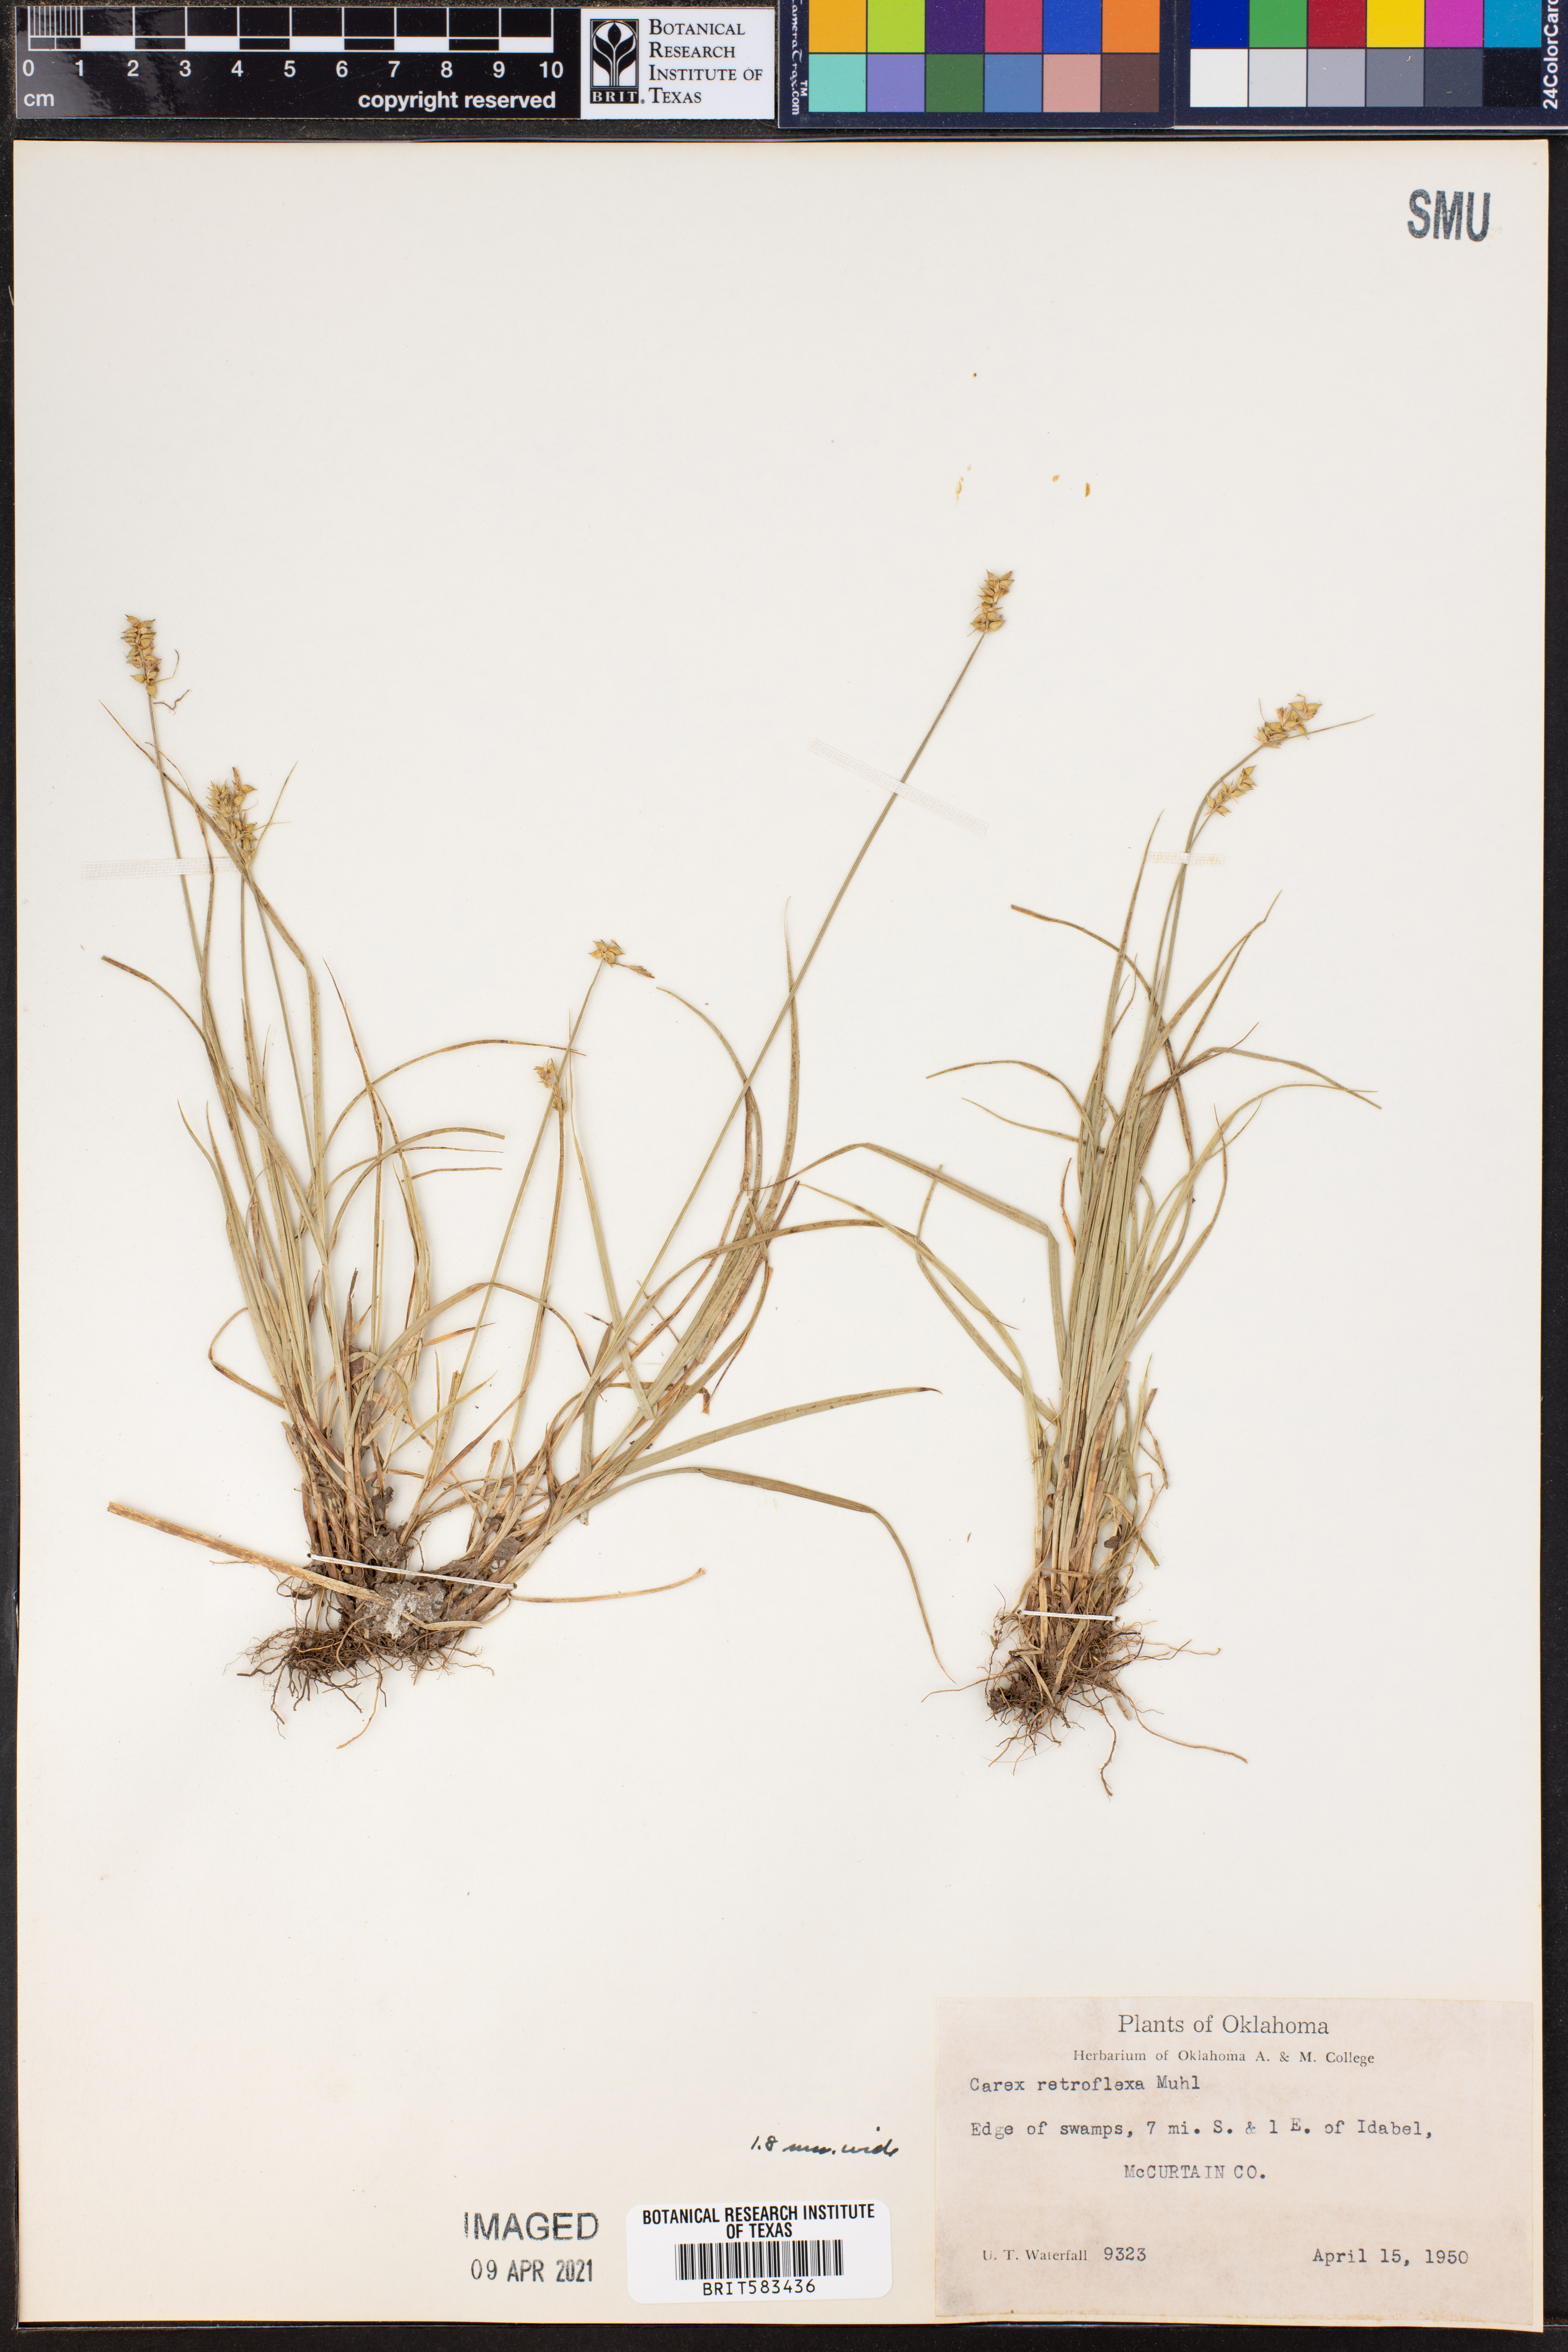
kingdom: Plantae
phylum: Tracheophyta
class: Liliopsida
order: Poales
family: Cyperaceae
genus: Carex
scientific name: Carex retroflexa
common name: Reflexed sedge
